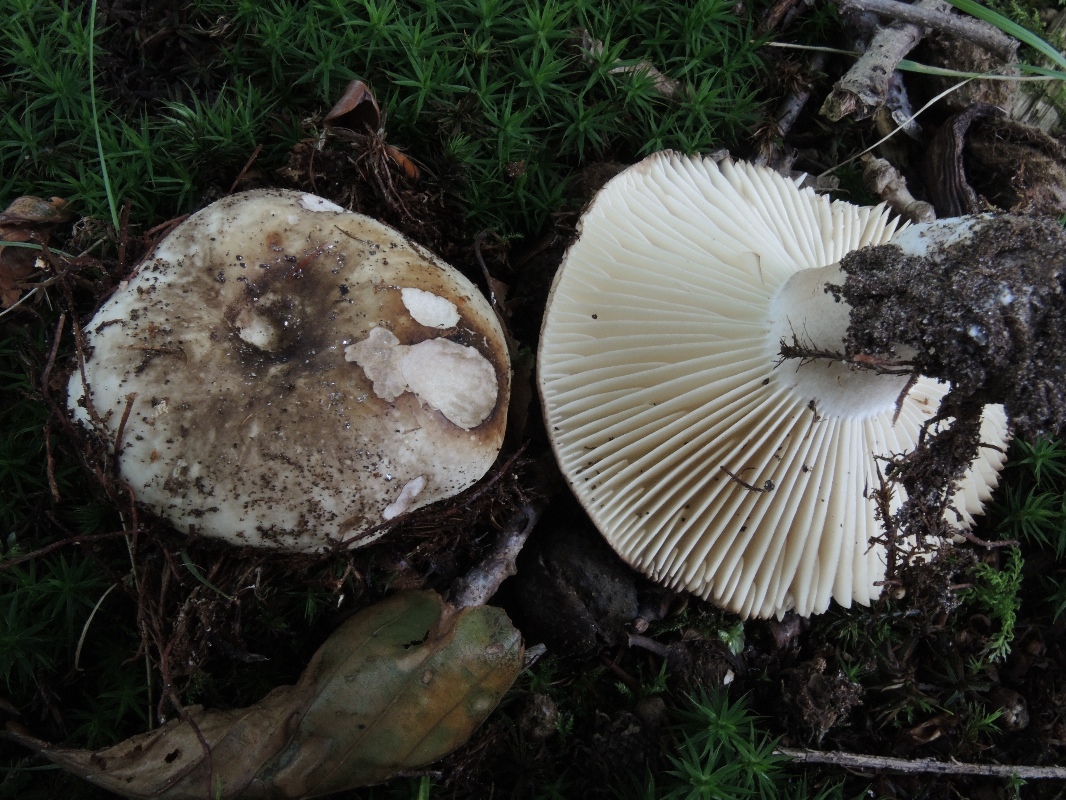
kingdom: Fungi
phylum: Basidiomycota
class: Agaricomycetes
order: Russulales
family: Russulaceae
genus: Russula
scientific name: Russula adusta
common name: sværtende skørhat
